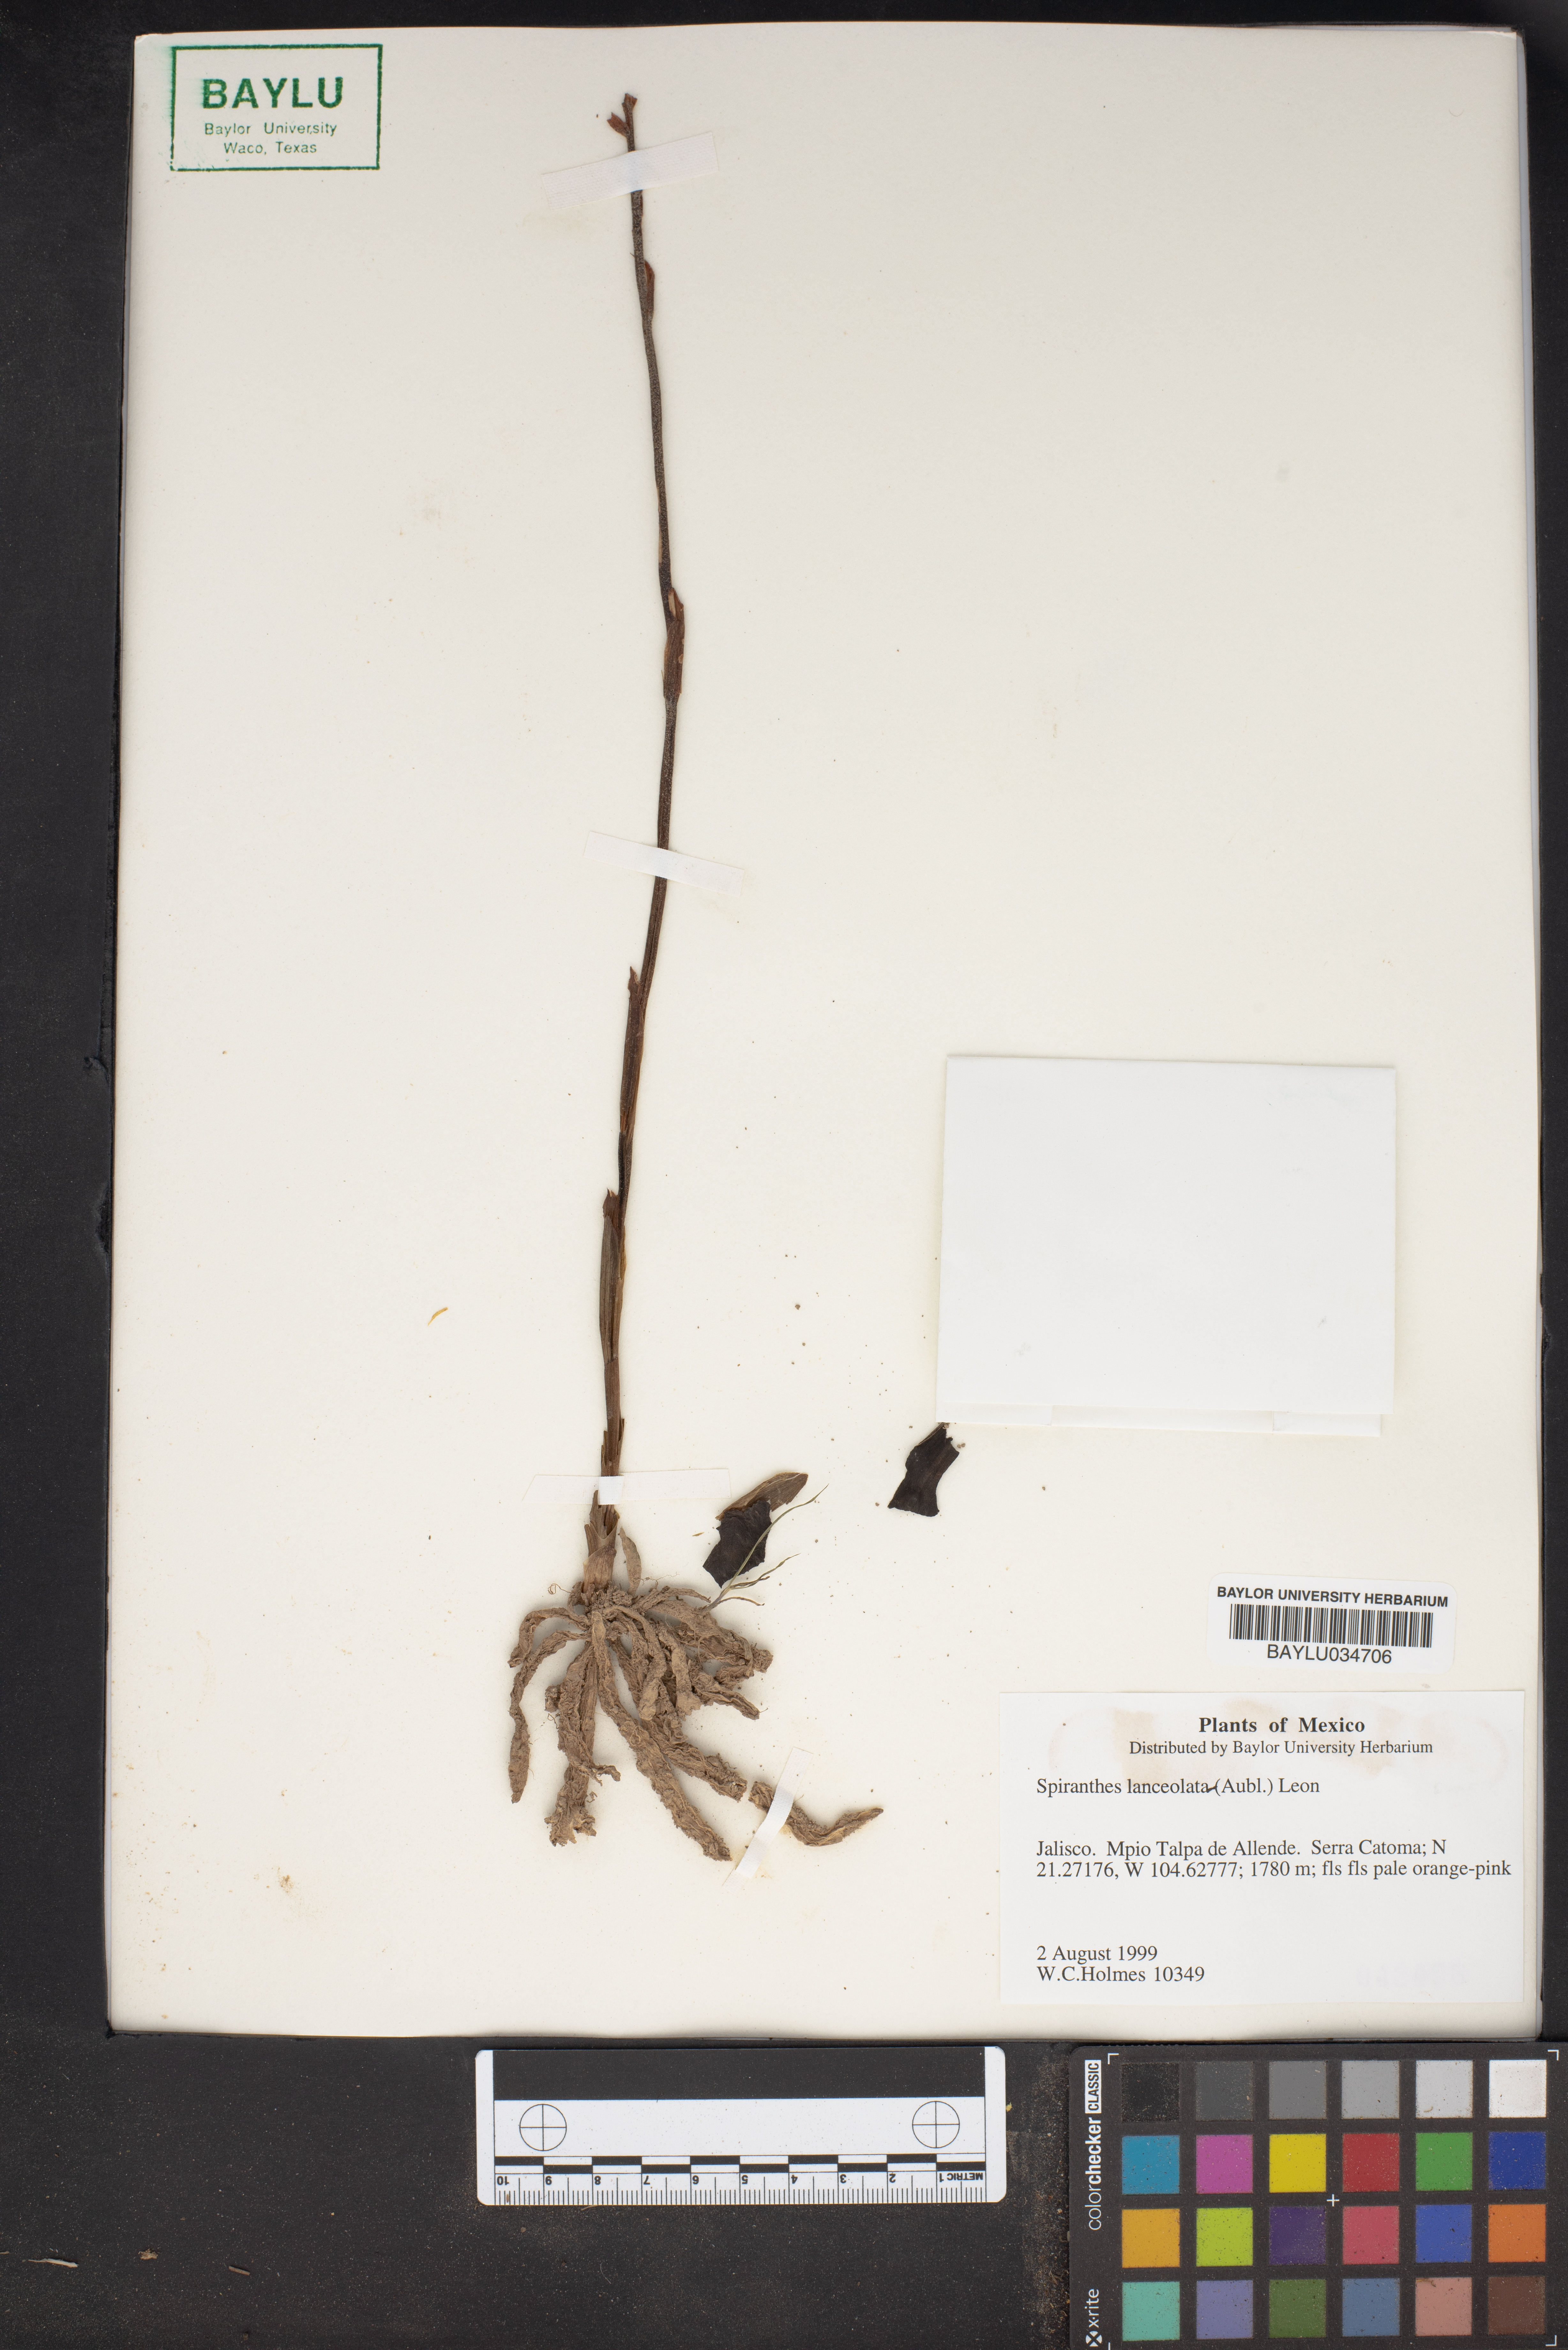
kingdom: Plantae
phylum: Tracheophyta
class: Liliopsida
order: Asparagales
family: Orchidaceae
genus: Sacoila
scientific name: Sacoila lanceolata
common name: Leafless beaked ladiestresses
